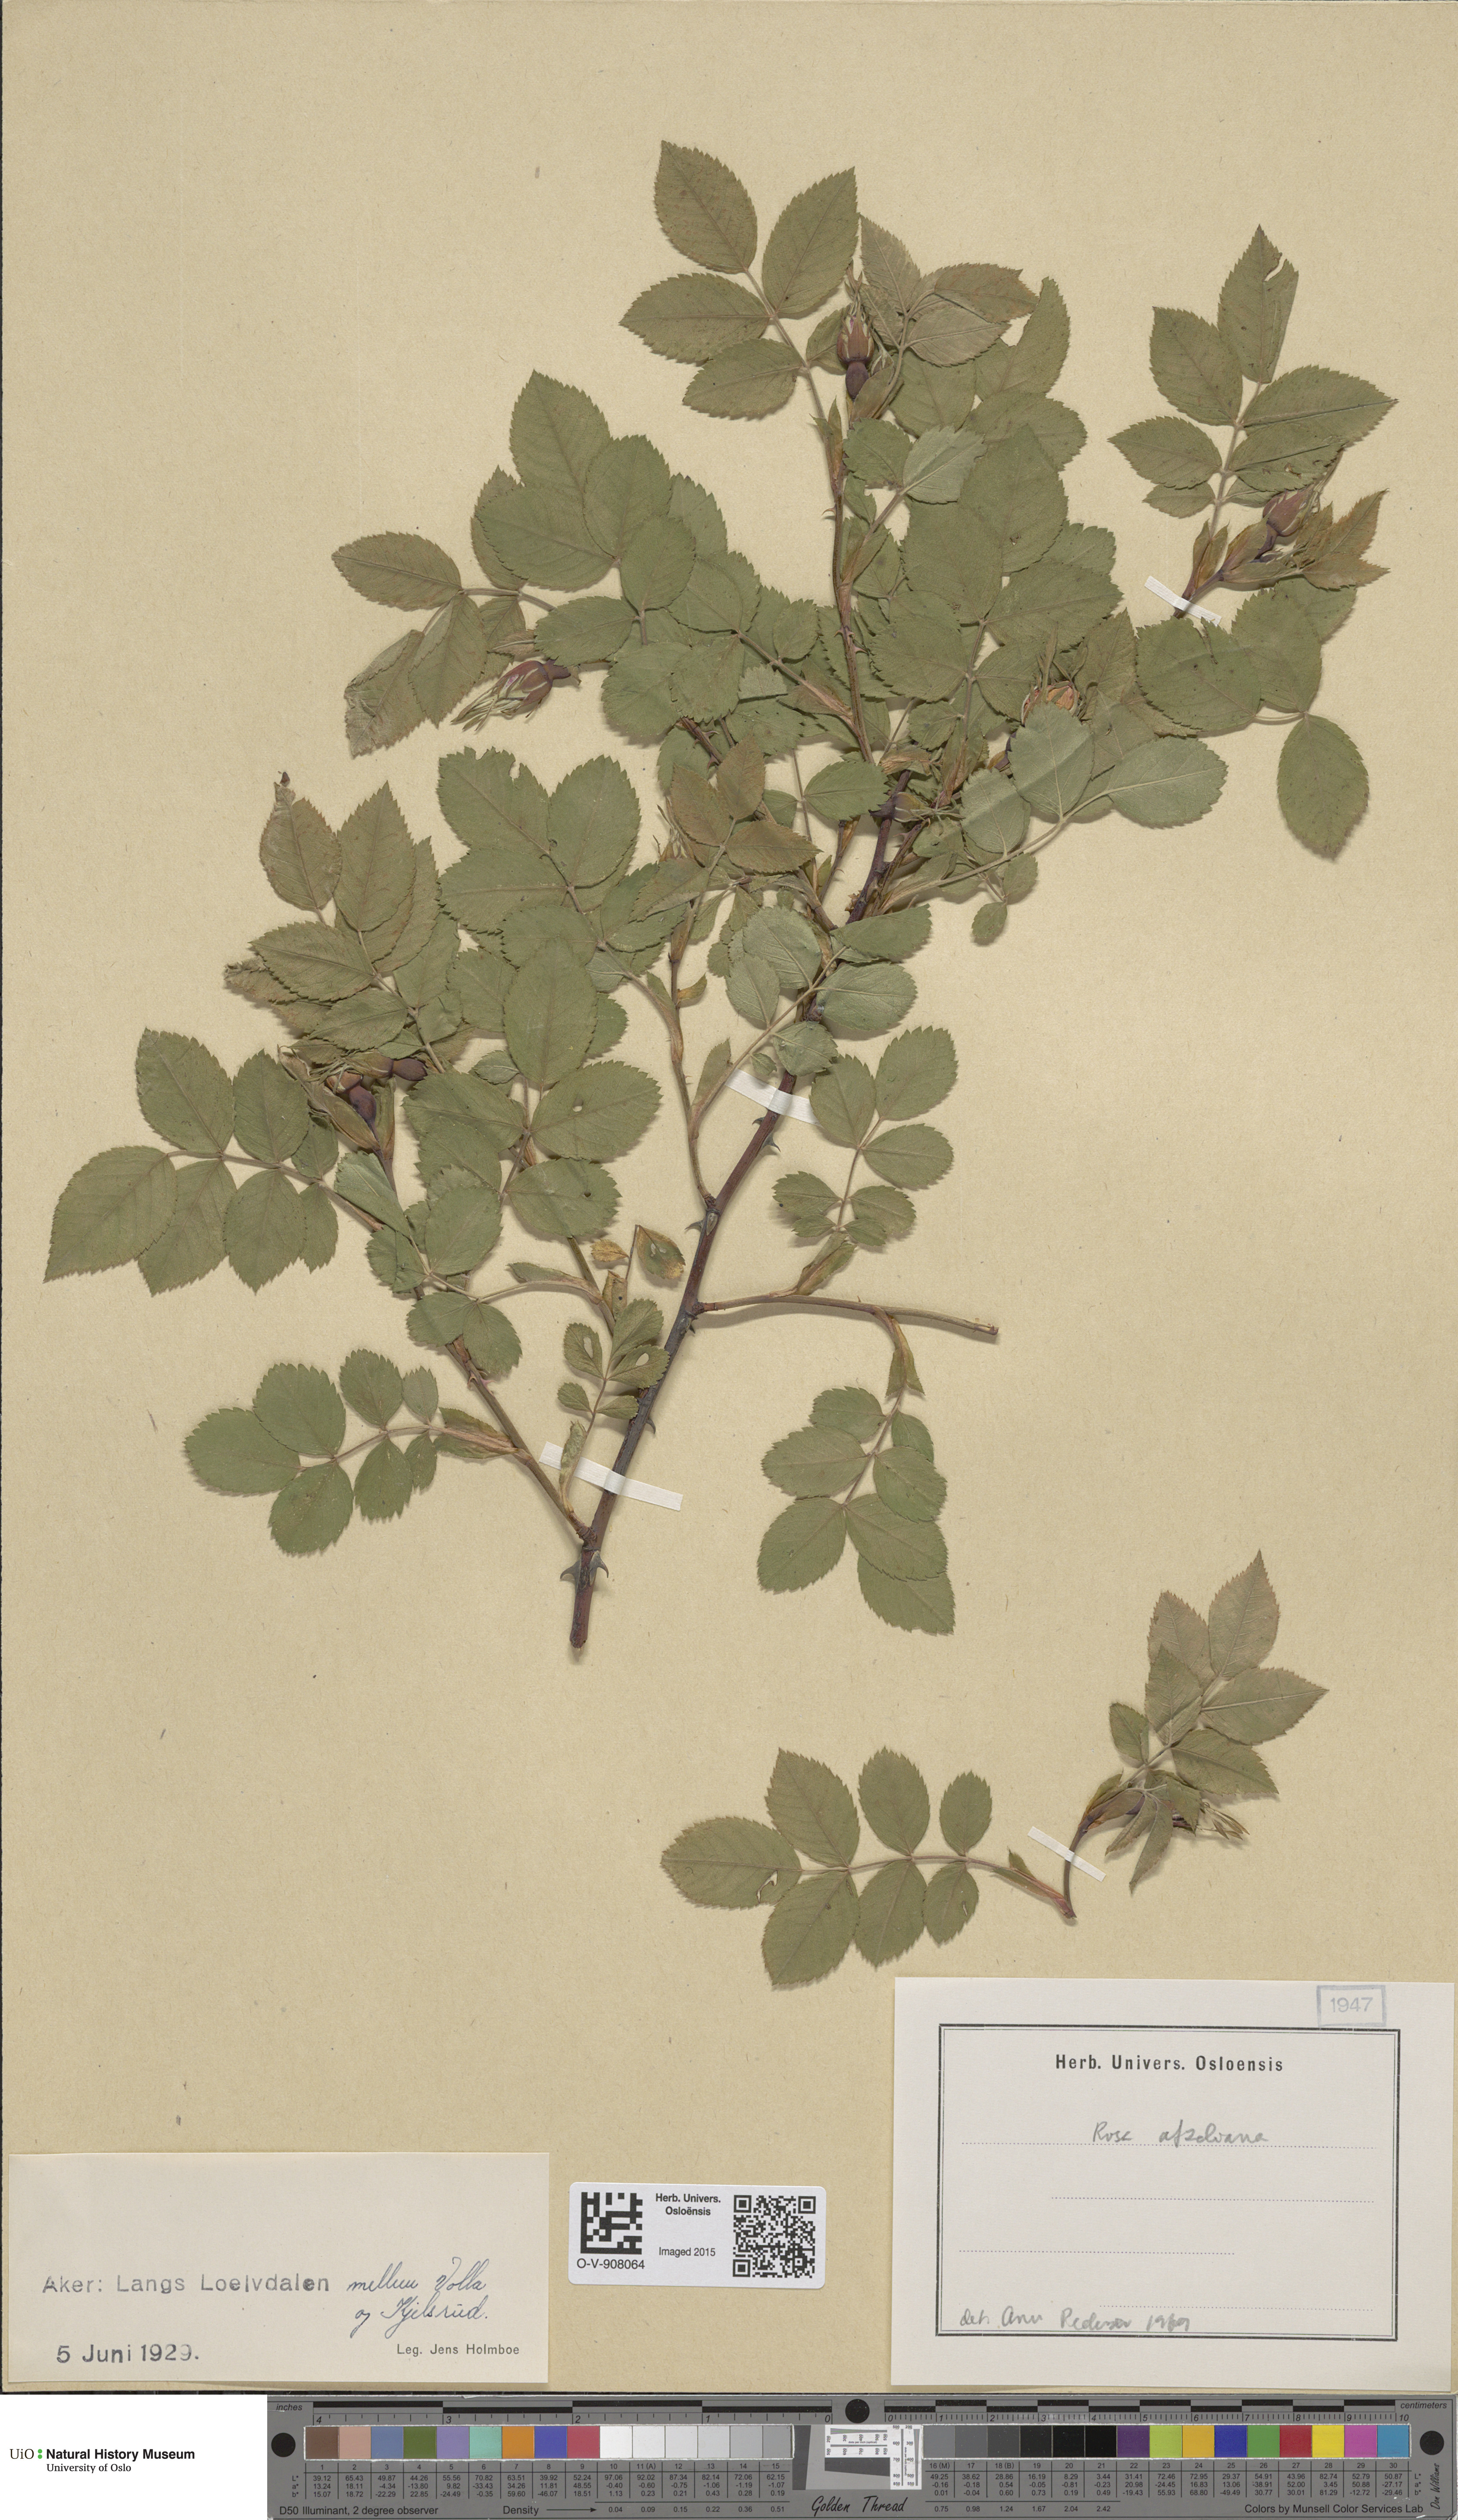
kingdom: Plantae
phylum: Tracheophyta
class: Magnoliopsida
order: Rosales
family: Rosaceae
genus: Rosa
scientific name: Rosa
